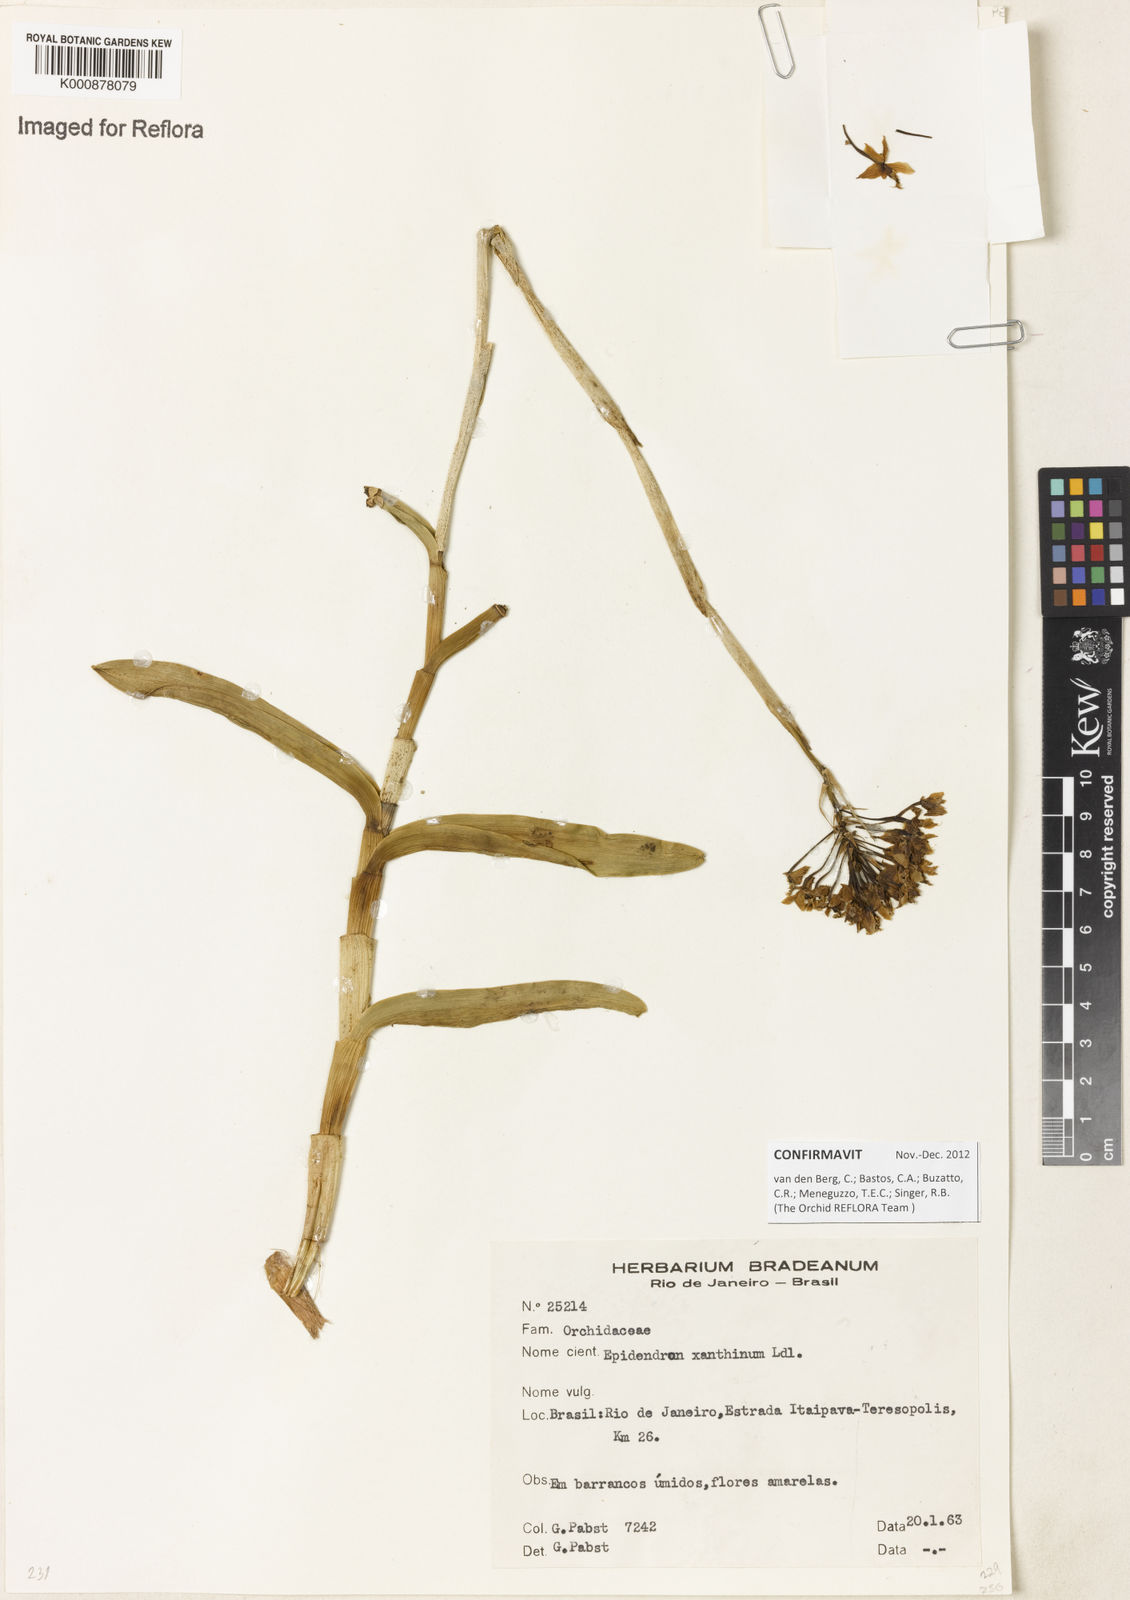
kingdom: Plantae
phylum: Tracheophyta
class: Liliopsida
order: Asparagales
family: Orchidaceae
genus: Epidendrum
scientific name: Epidendrum xanthinum
